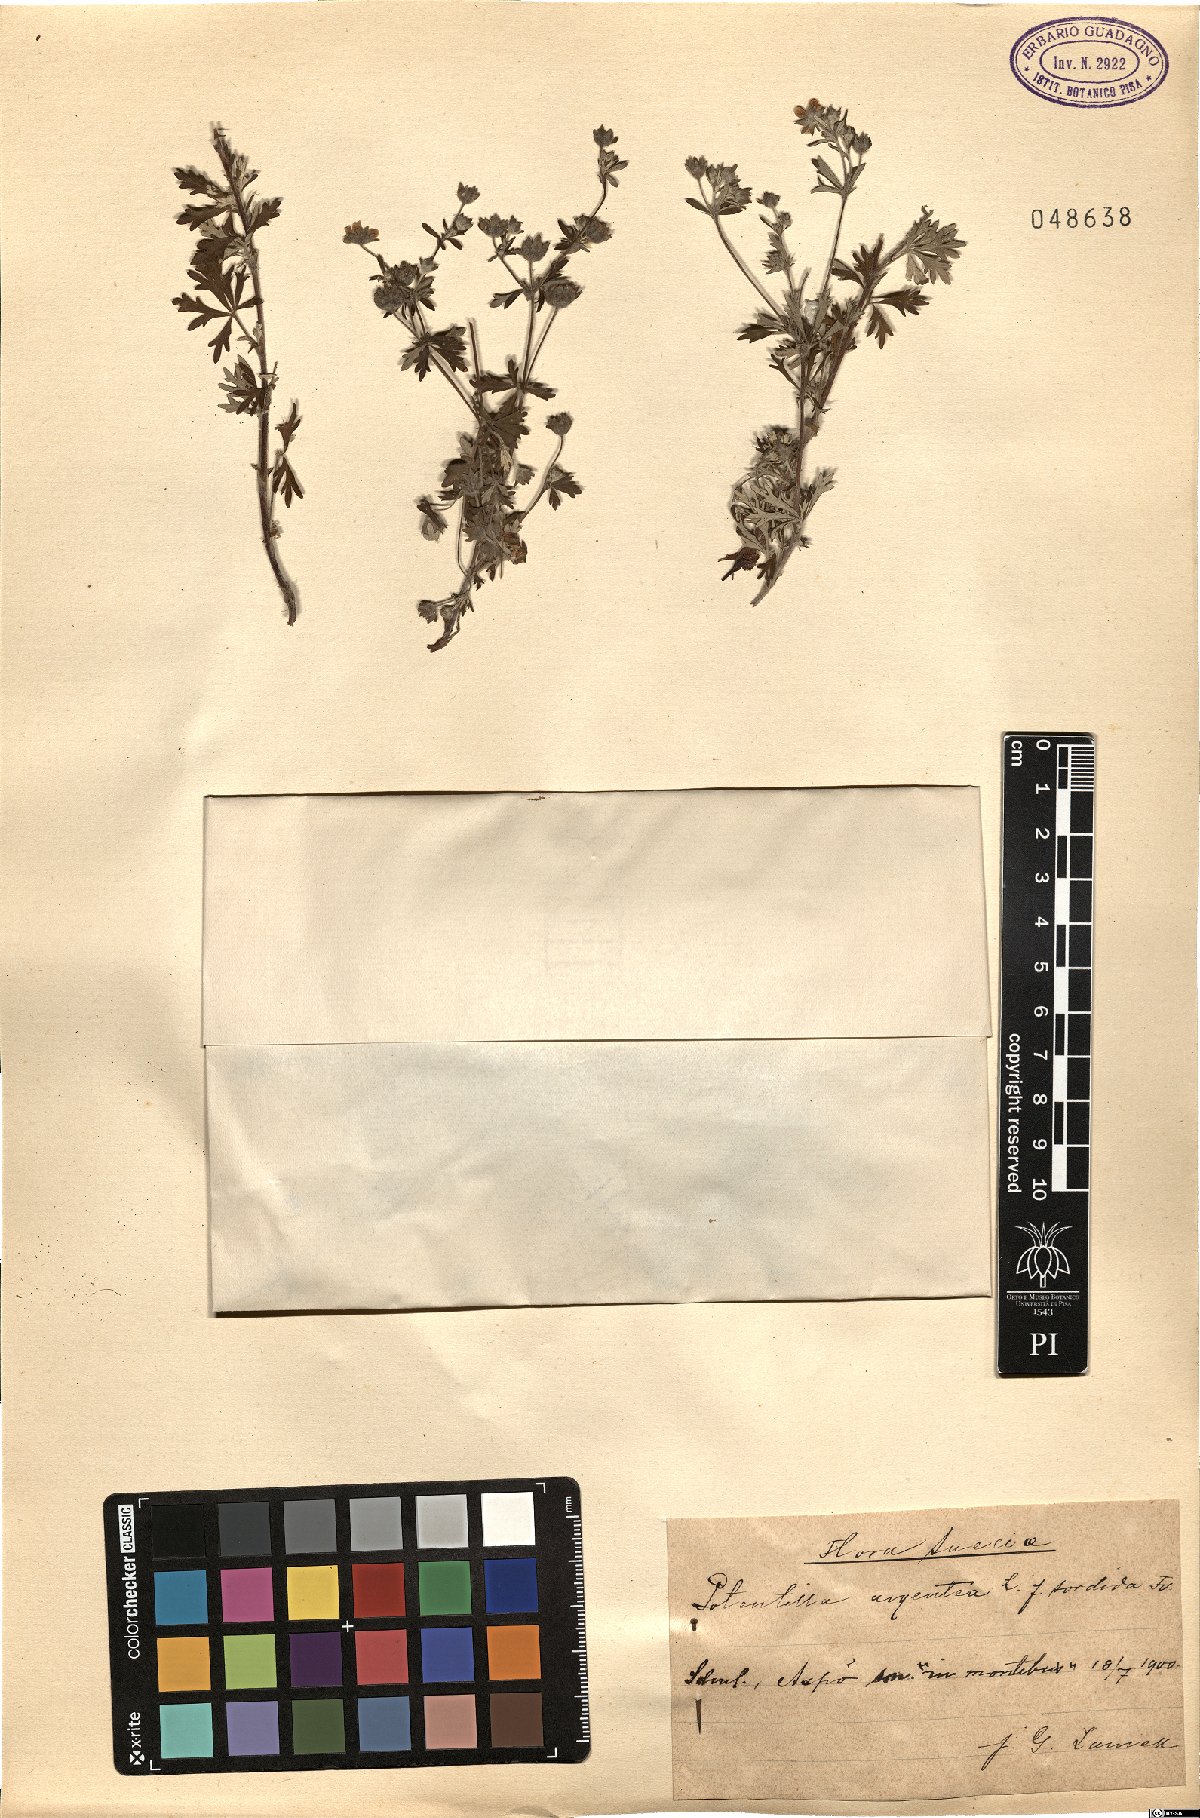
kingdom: Plantae
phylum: Tracheophyta
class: Magnoliopsida
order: Rosales
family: Rosaceae
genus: Potentilla
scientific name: Potentilla argentea
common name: Hoary cinquefoil
